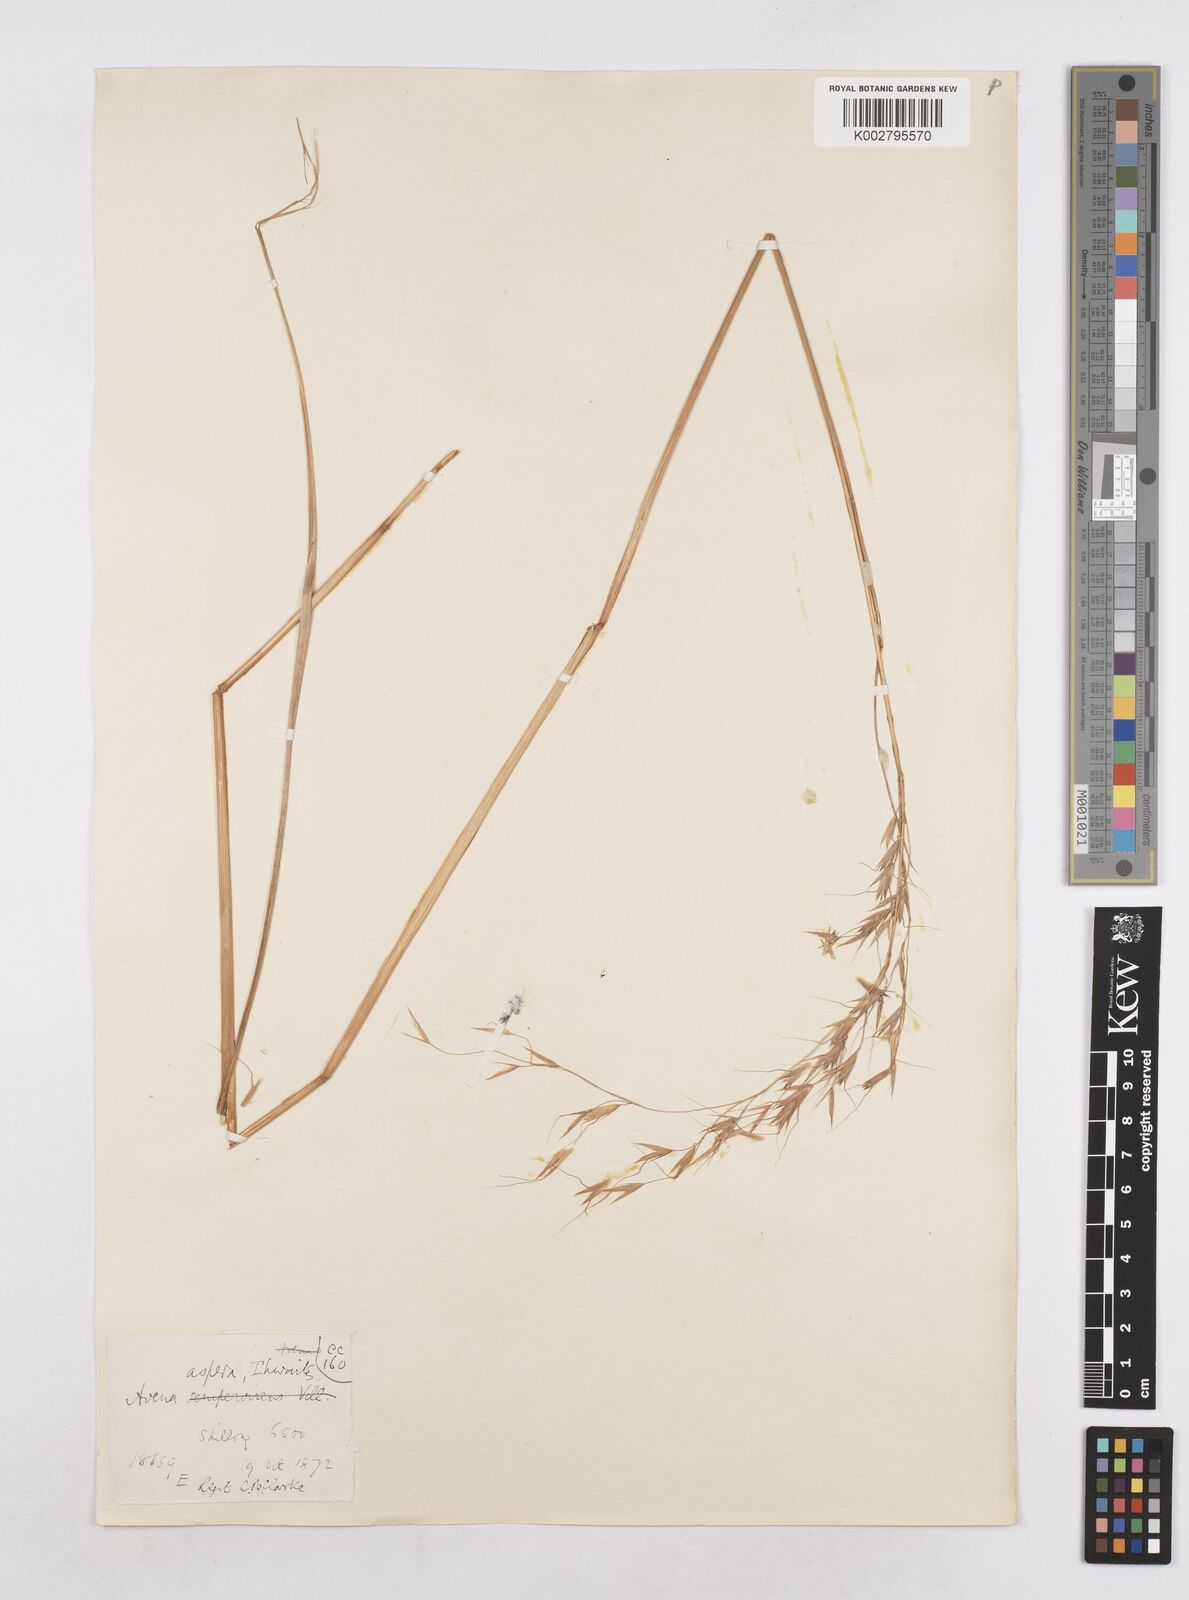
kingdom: Plantae
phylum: Tracheophyta
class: Liliopsida
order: Poales
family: Poaceae
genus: Trisetopsis
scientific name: Trisetopsis junghuhnii
